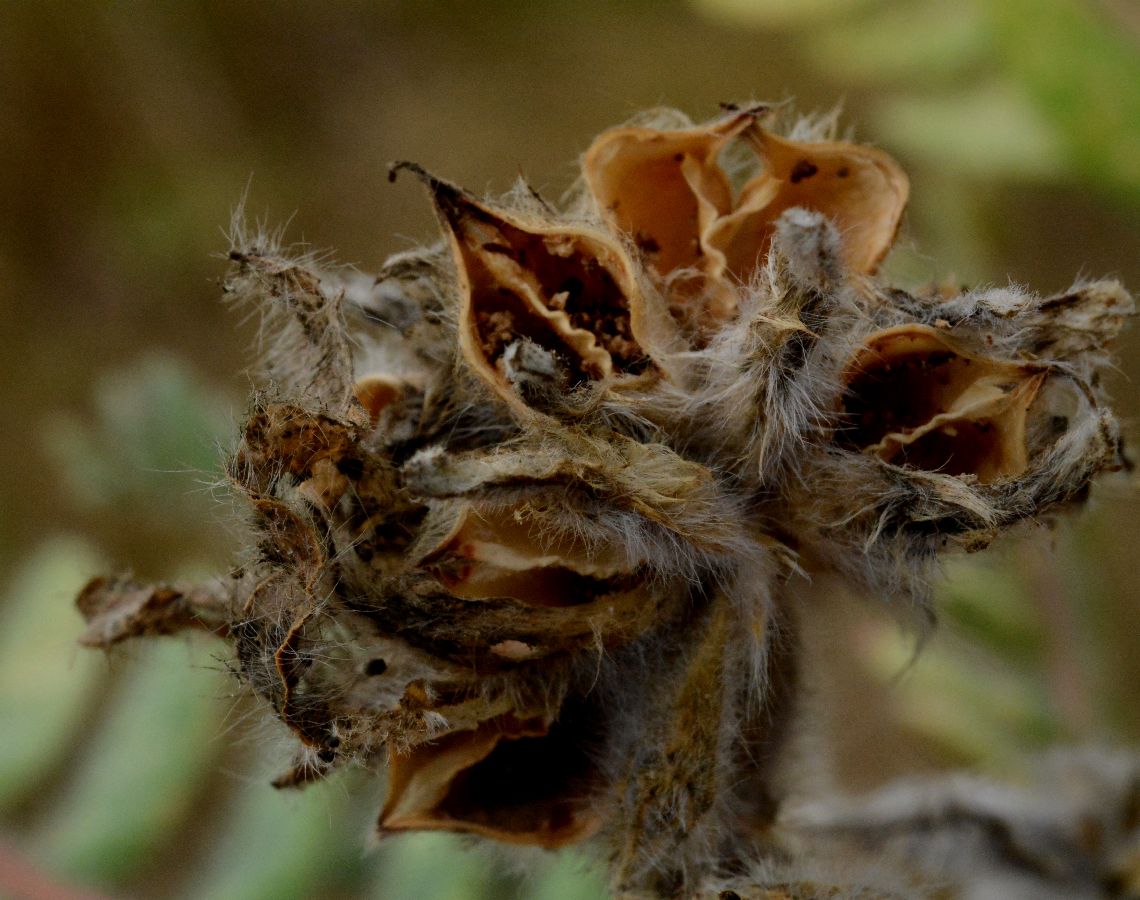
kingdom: Plantae
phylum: Tracheophyta
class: Magnoliopsida
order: Fabales
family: Fabaceae
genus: Astragalus
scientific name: Astragalus dasyanthus
